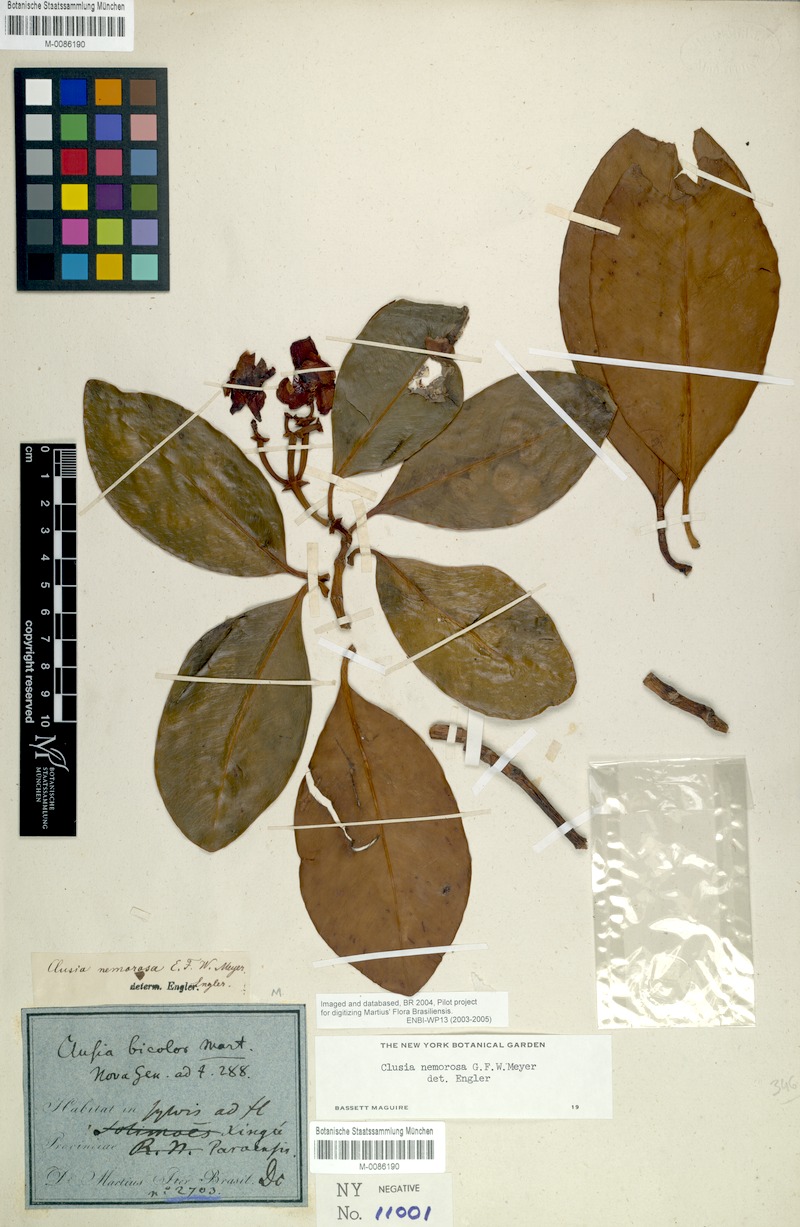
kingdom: Plantae
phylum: Tracheophyta
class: Magnoliopsida
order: Malpighiales
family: Clusiaceae
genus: Clusia
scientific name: Clusia nemorosa
